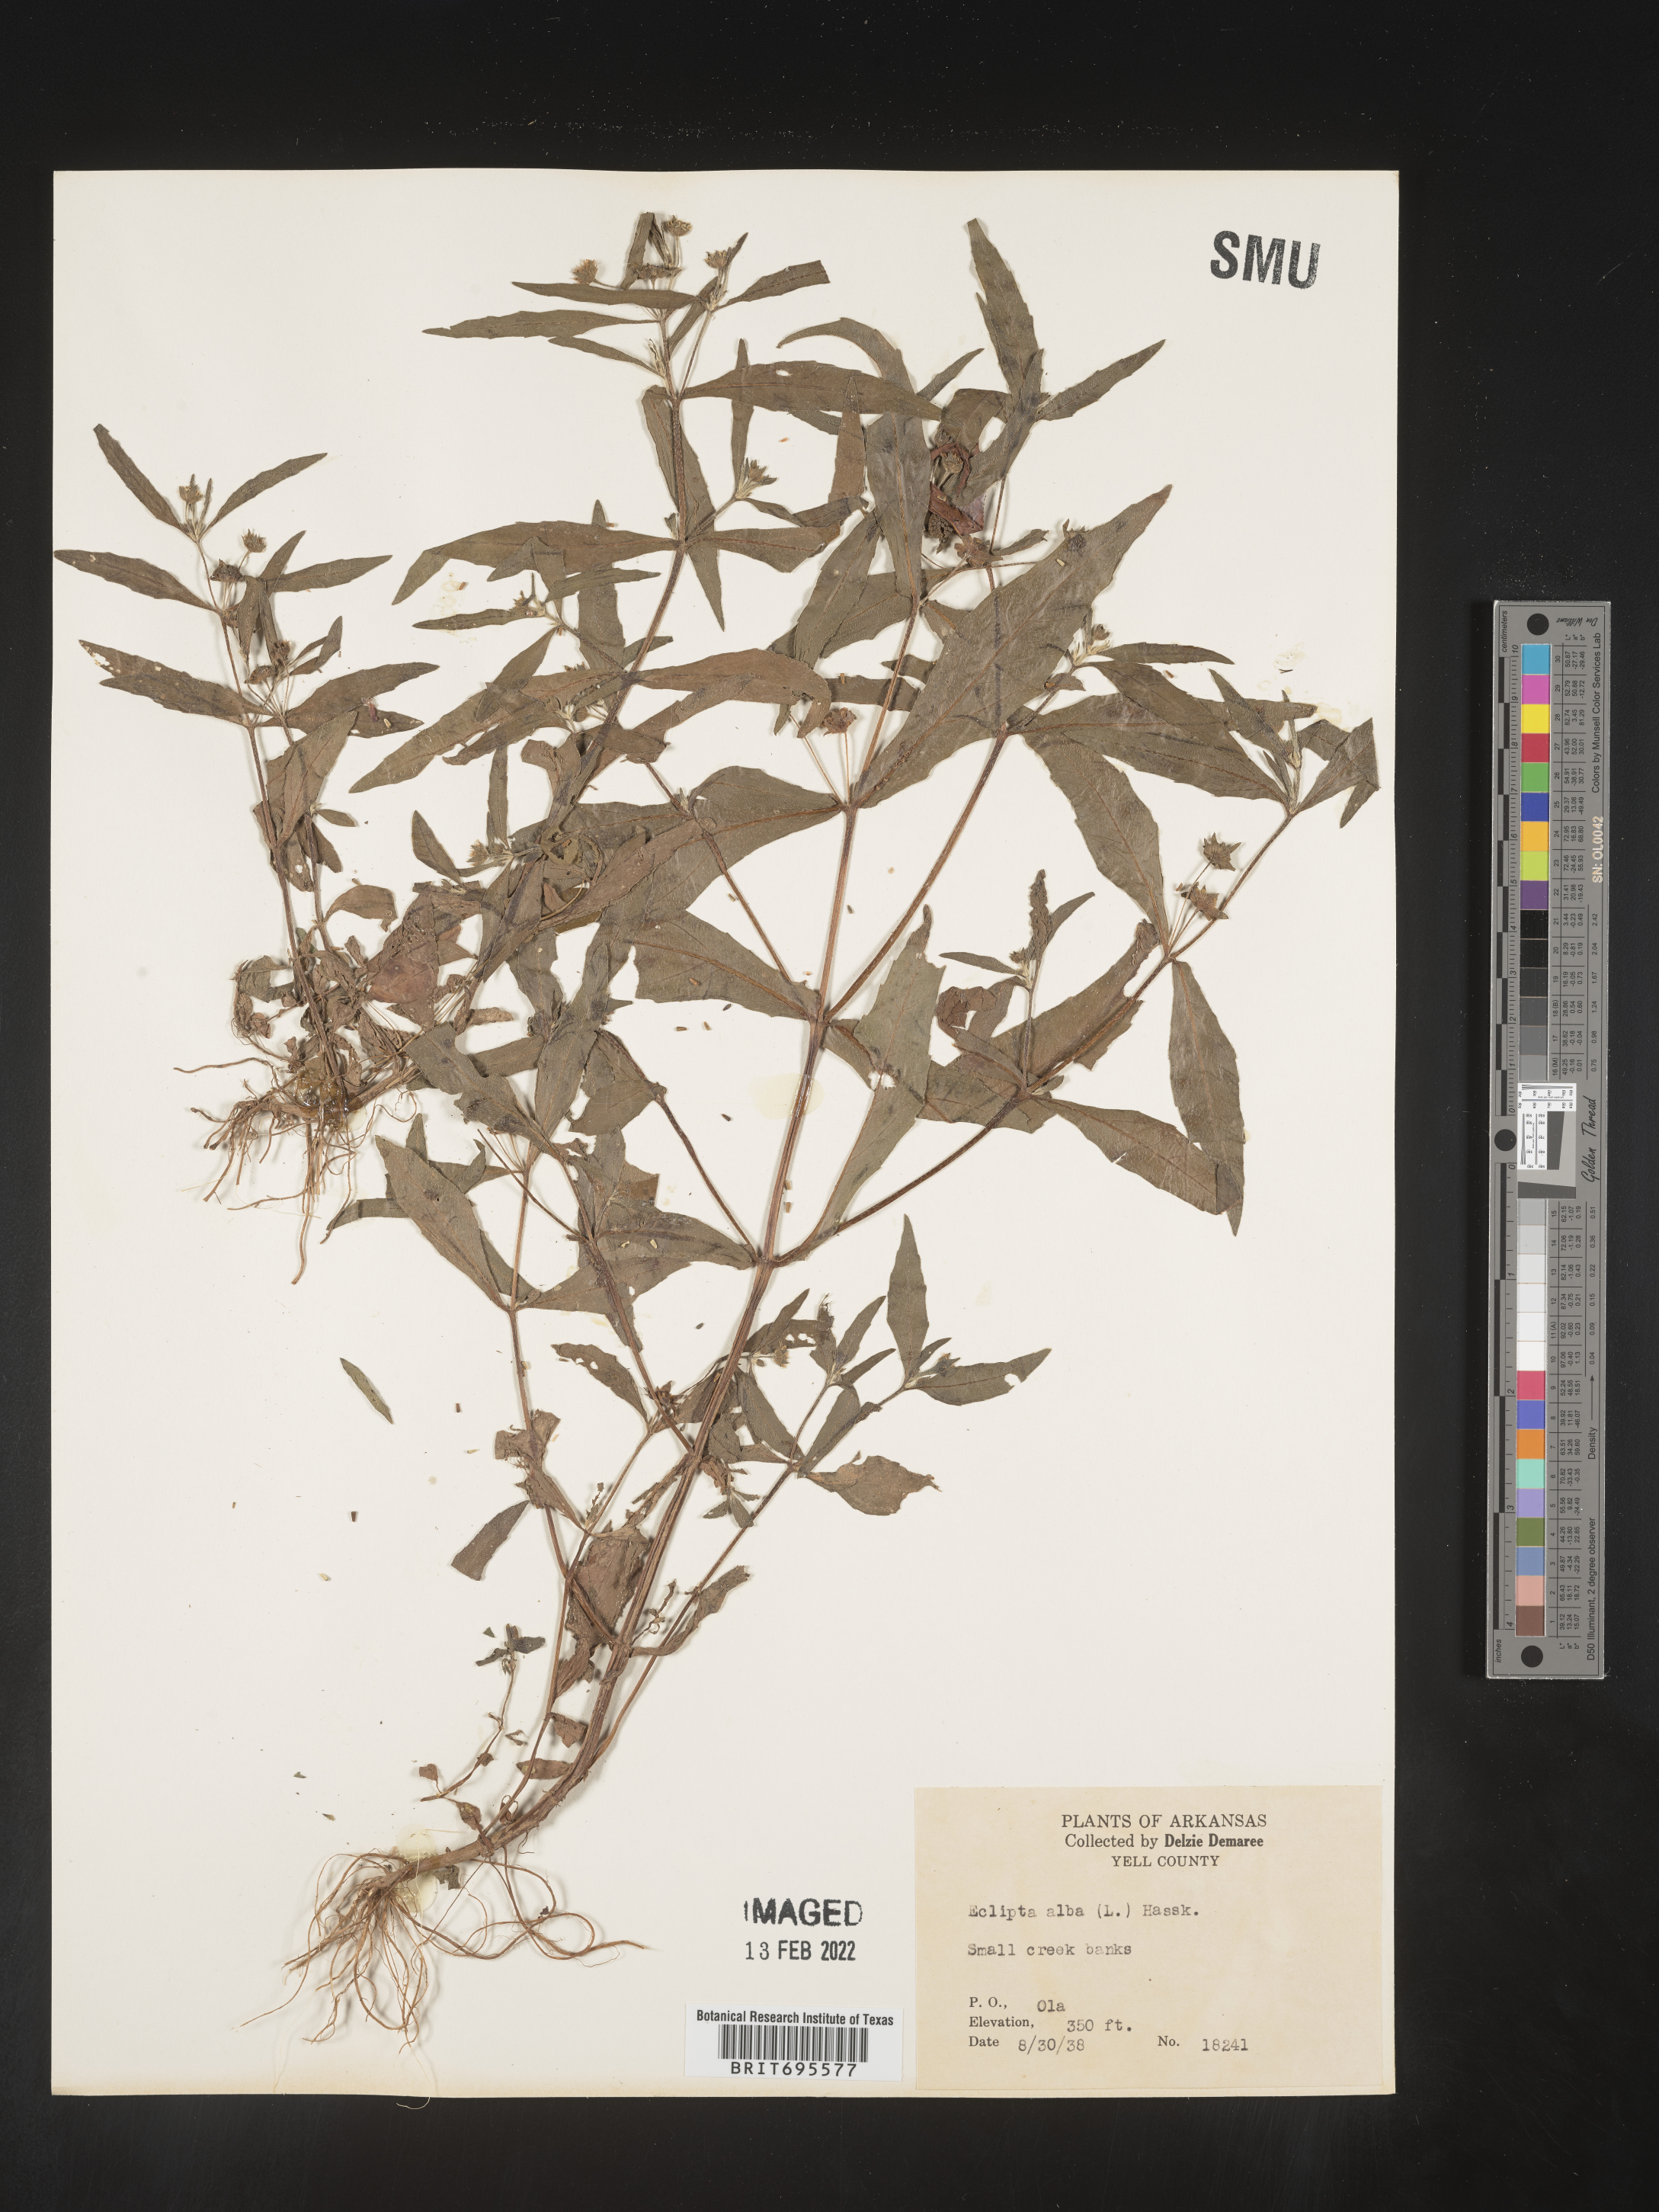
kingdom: Plantae
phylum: Tracheophyta
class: Magnoliopsida
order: Asterales
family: Asteraceae
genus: Eclipta
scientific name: Eclipta alba
